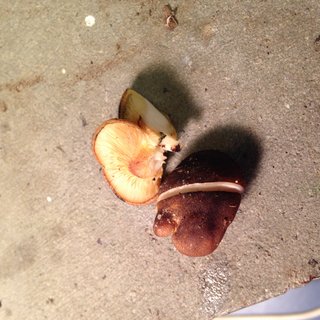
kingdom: Fungi
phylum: Basidiomycota
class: Agaricomycetes
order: Agaricales
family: Sarcomyxaceae
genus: Sarcomyxa
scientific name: Sarcomyxa serotina
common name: gummihat
